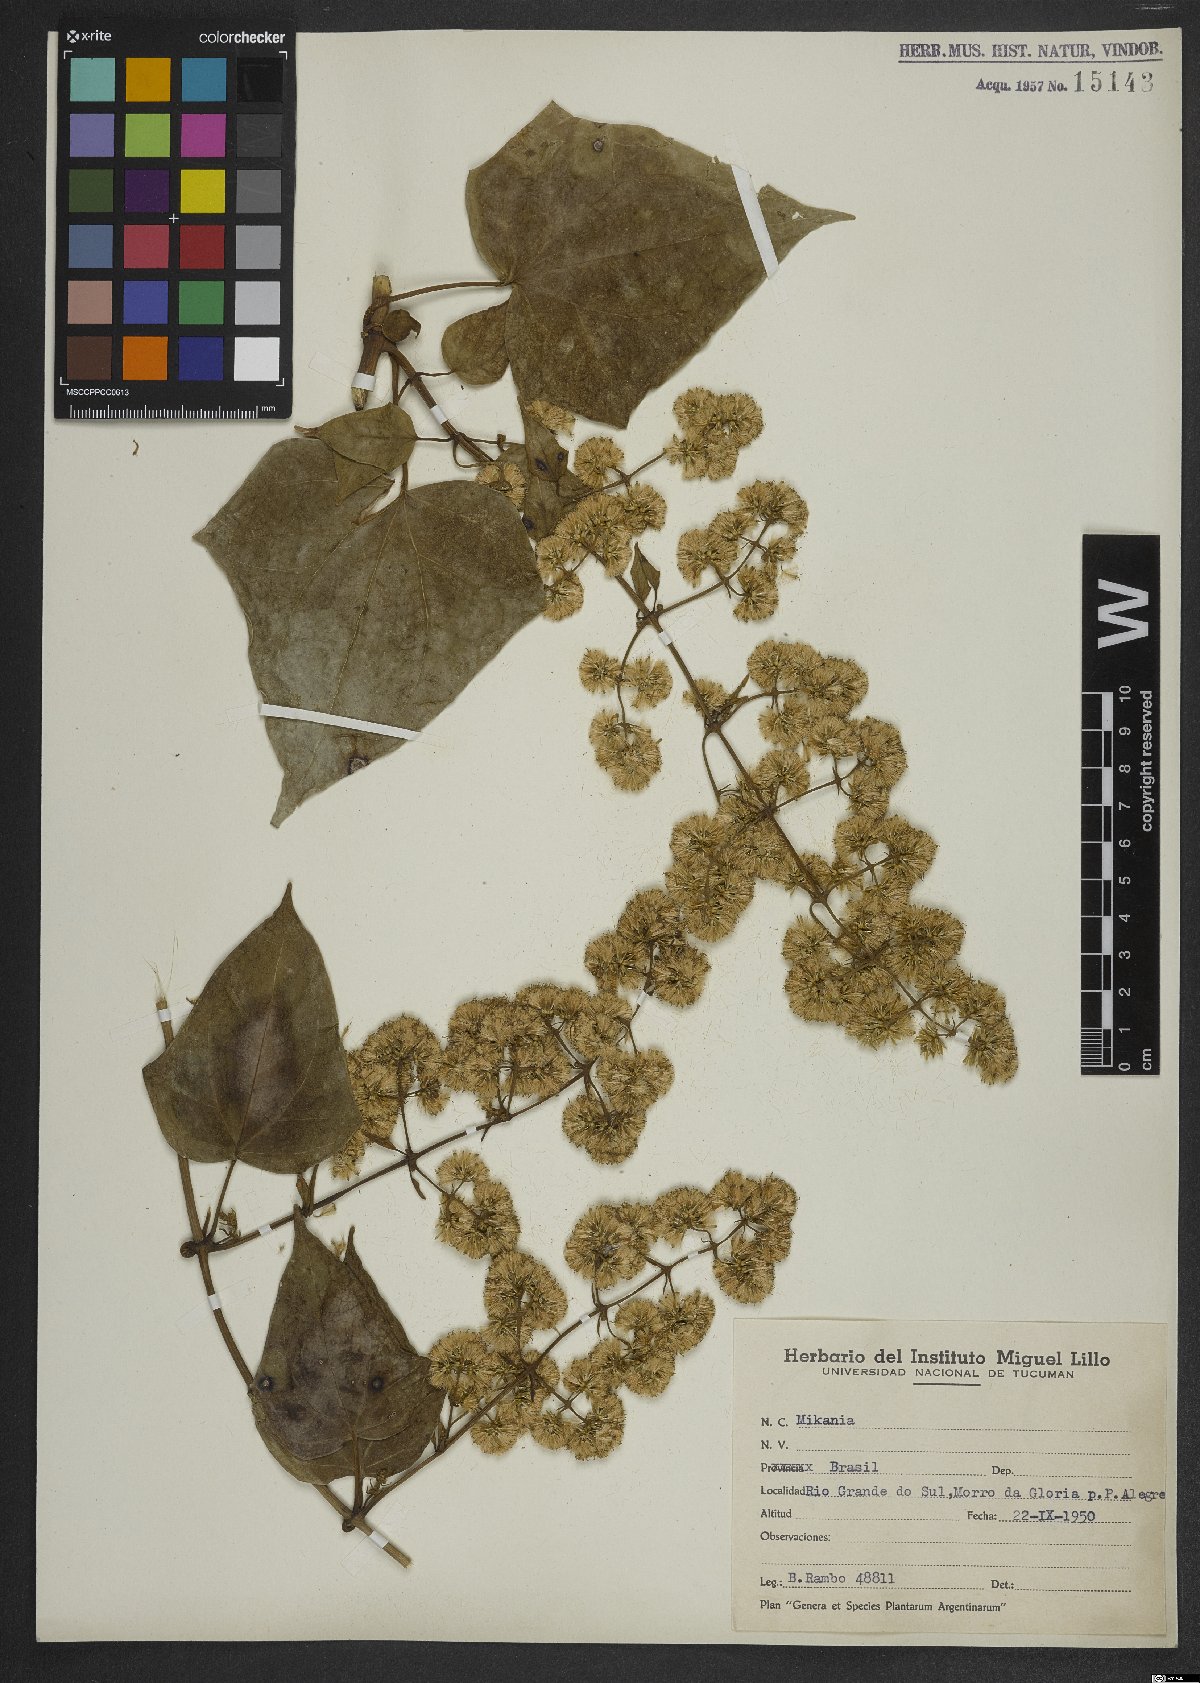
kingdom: Plantae
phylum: Tracheophyta
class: Magnoliopsida
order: Asterales
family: Asteraceae
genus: Mikania
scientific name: Mikania
